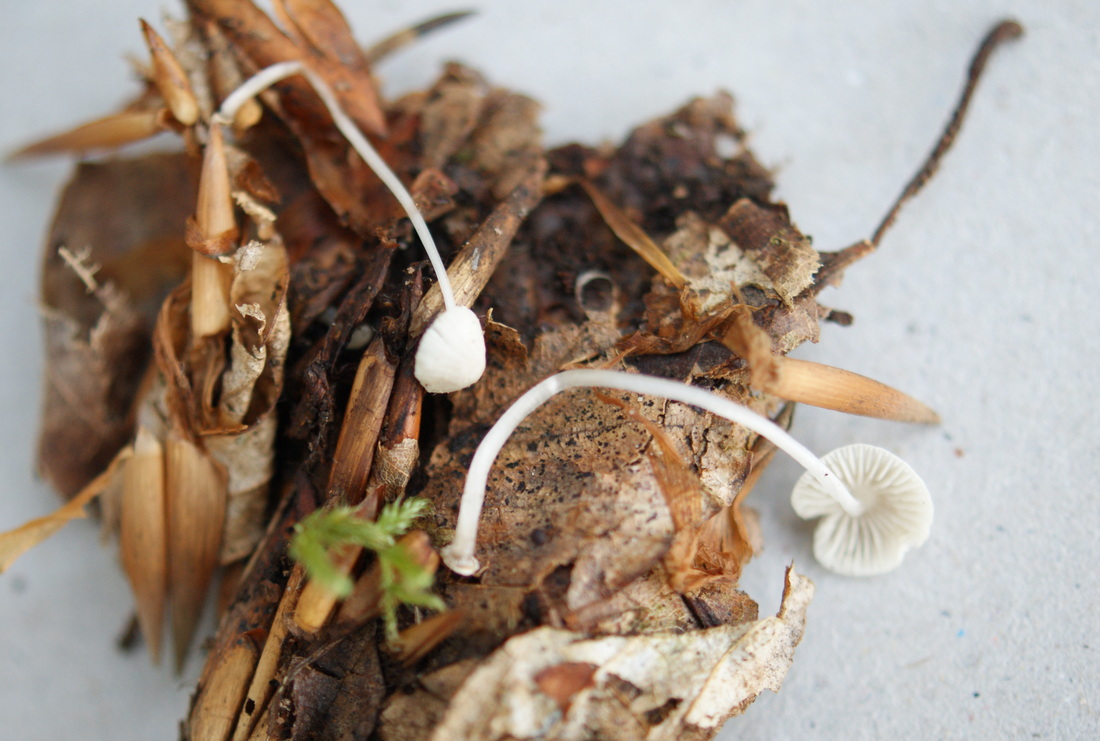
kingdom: Fungi
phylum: Basidiomycota
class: Agaricomycetes
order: Agaricales
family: Mycenaceae
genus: Mycena
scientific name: Mycena stylobates
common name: fureskivet huesvamp
